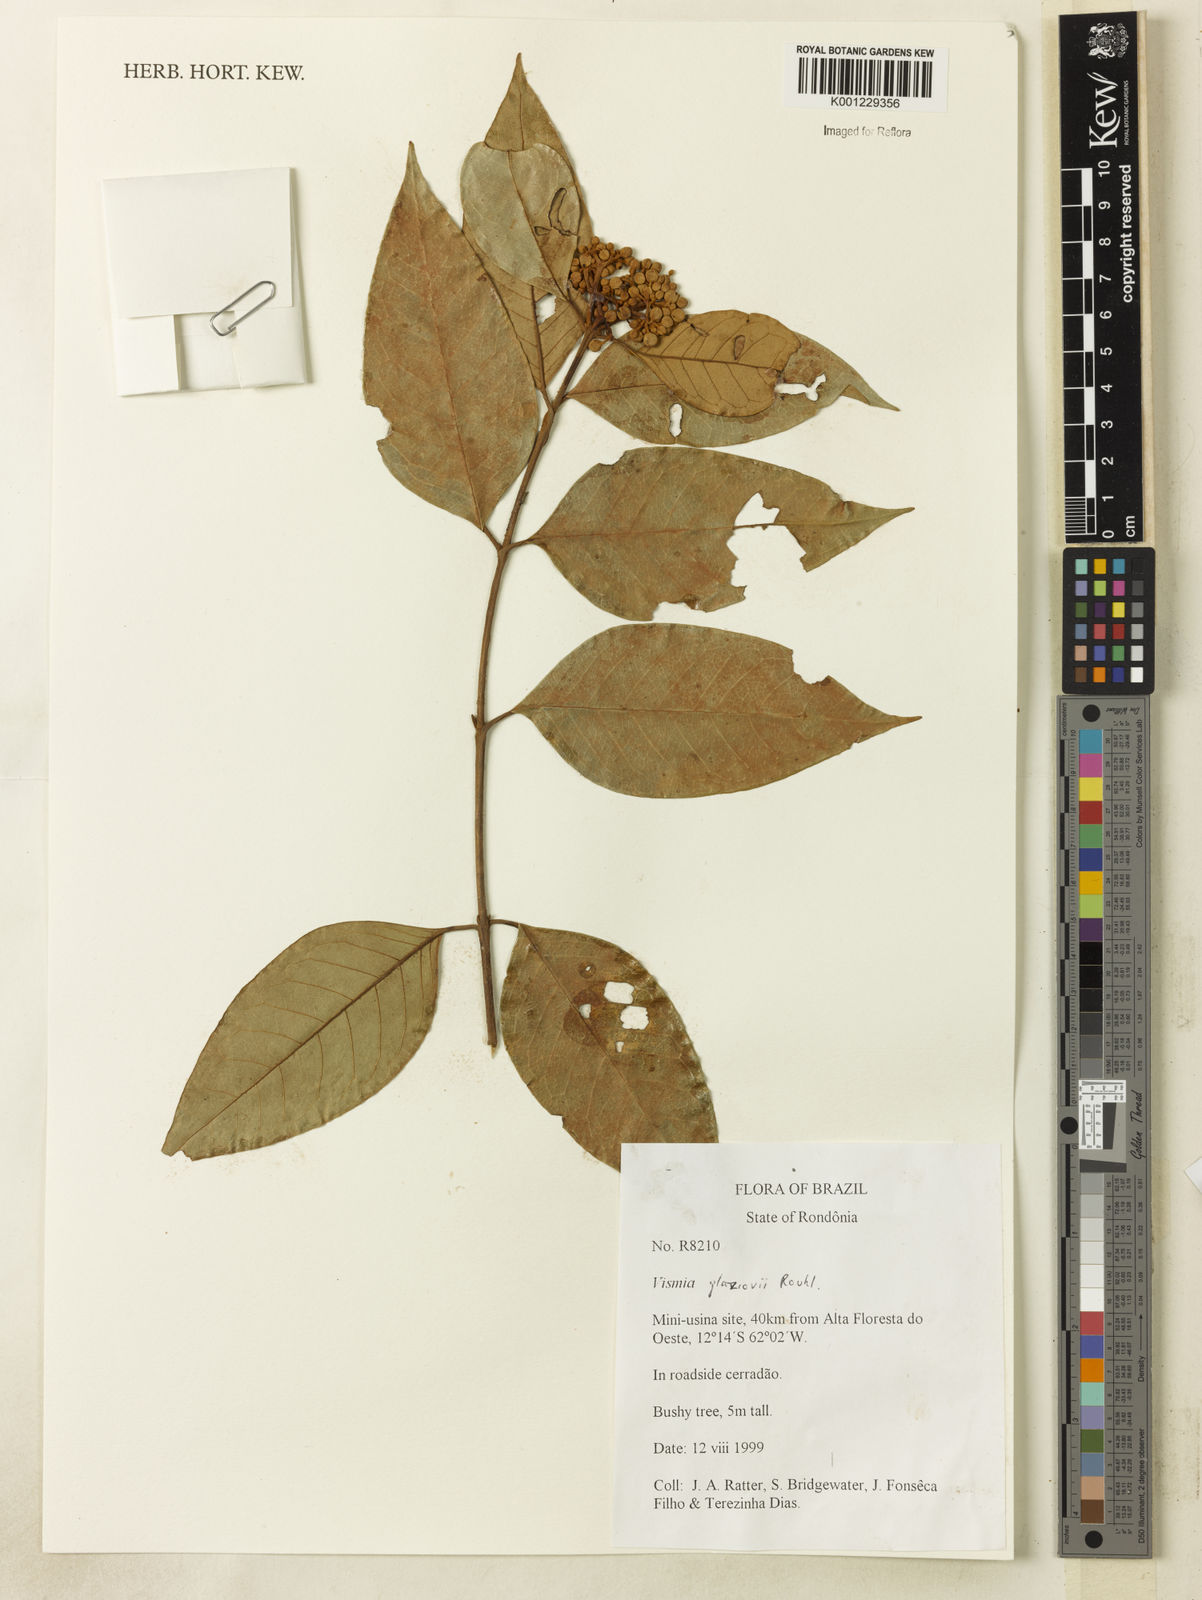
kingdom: Plantae
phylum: Tracheophyta
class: Magnoliopsida
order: Malpighiales
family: Hypericaceae
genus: Vismia
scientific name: Vismia gracilis
